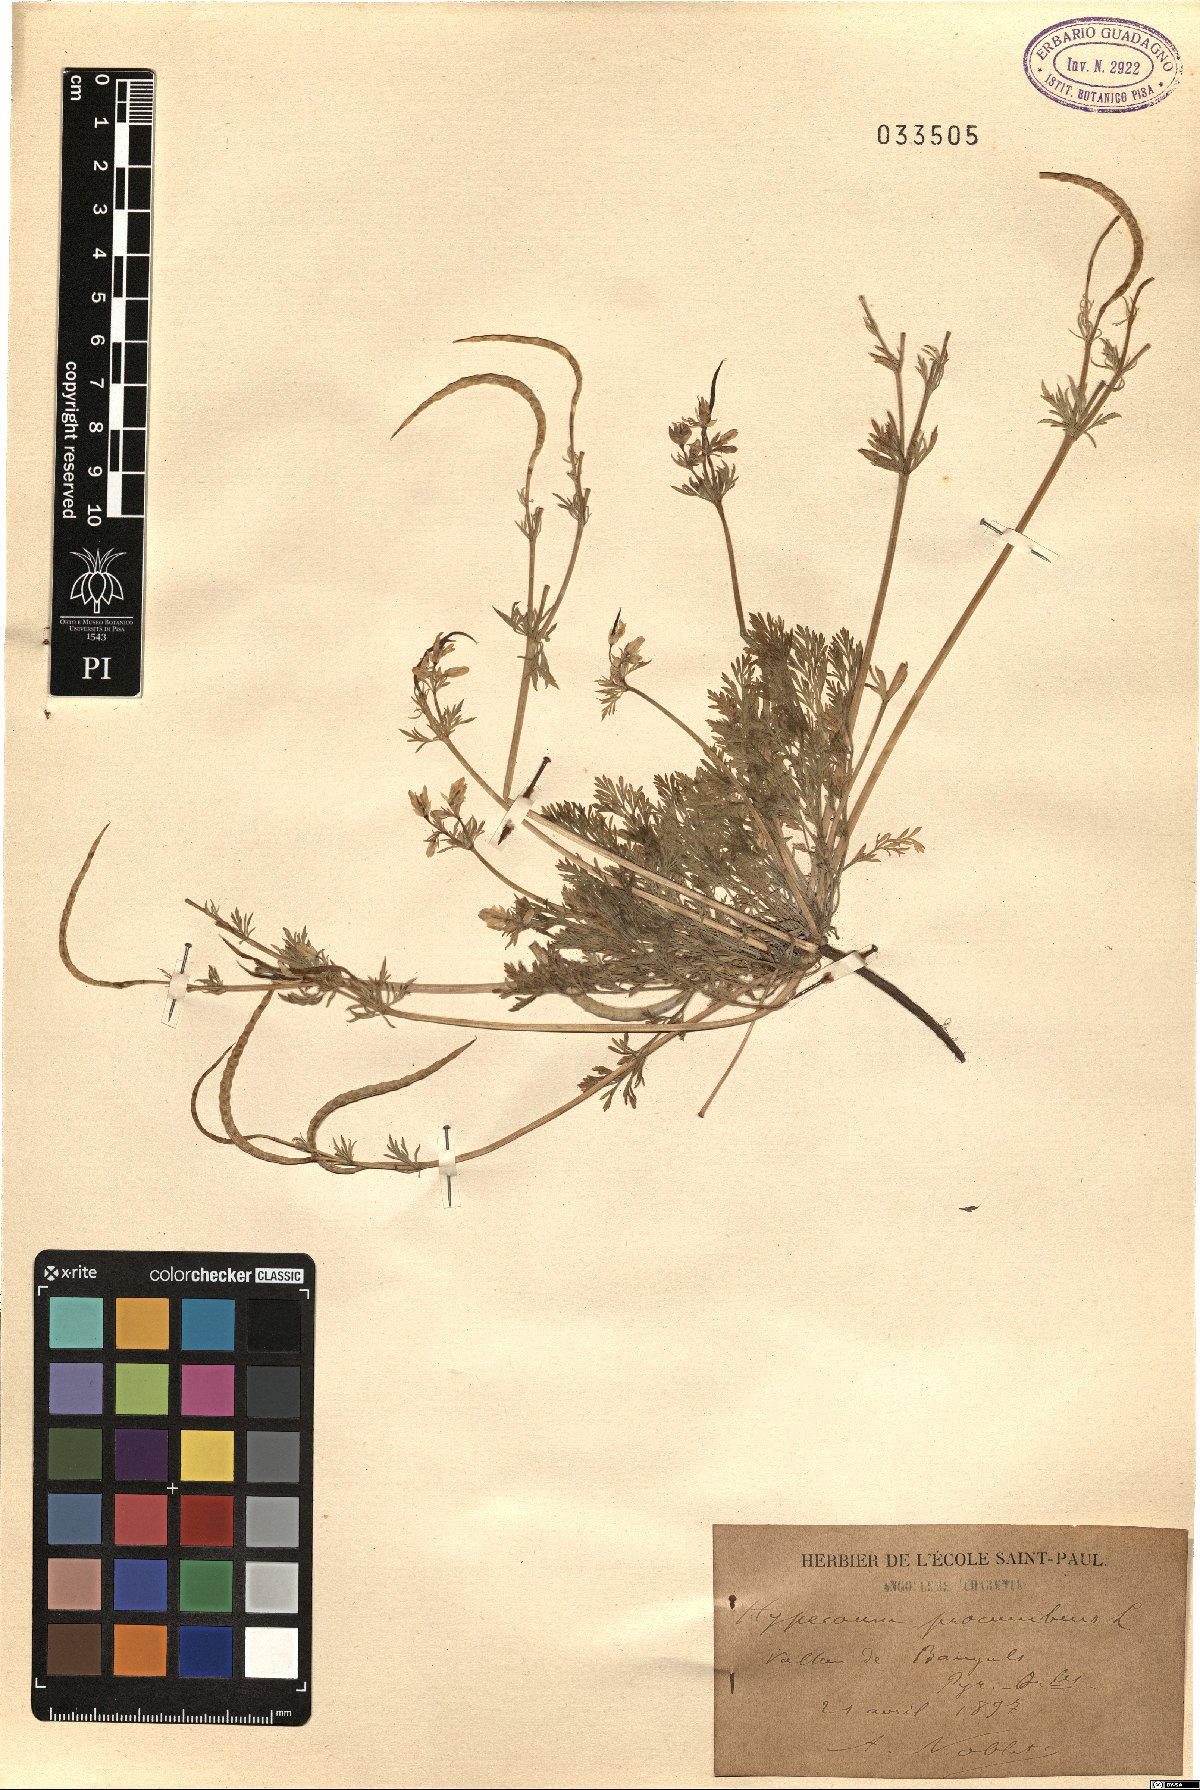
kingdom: Plantae
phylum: Tracheophyta
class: Magnoliopsida
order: Ranunculales
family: Papaveraceae
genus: Hypecoum
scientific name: Hypecoum procumbens
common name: Procumbent hypecoum
